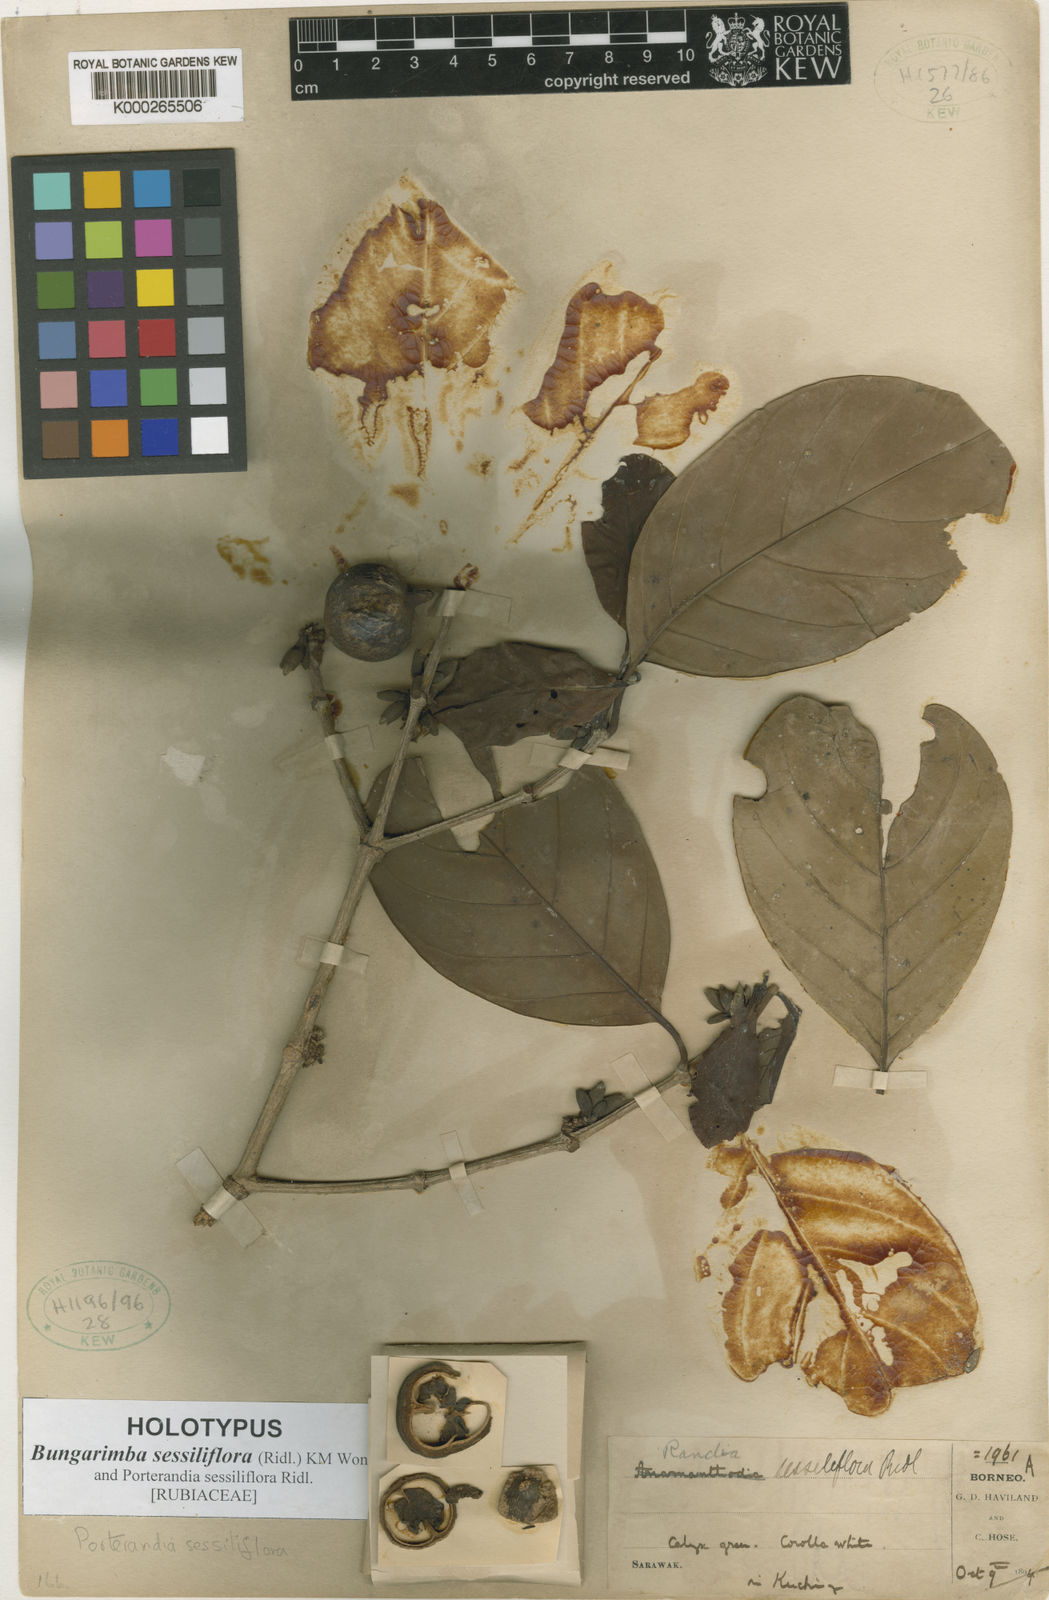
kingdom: Plantae
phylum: Tracheophyta
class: Magnoliopsida
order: Gentianales
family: Rubiaceae
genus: Bungarimba
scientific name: Bungarimba sessiliflora
